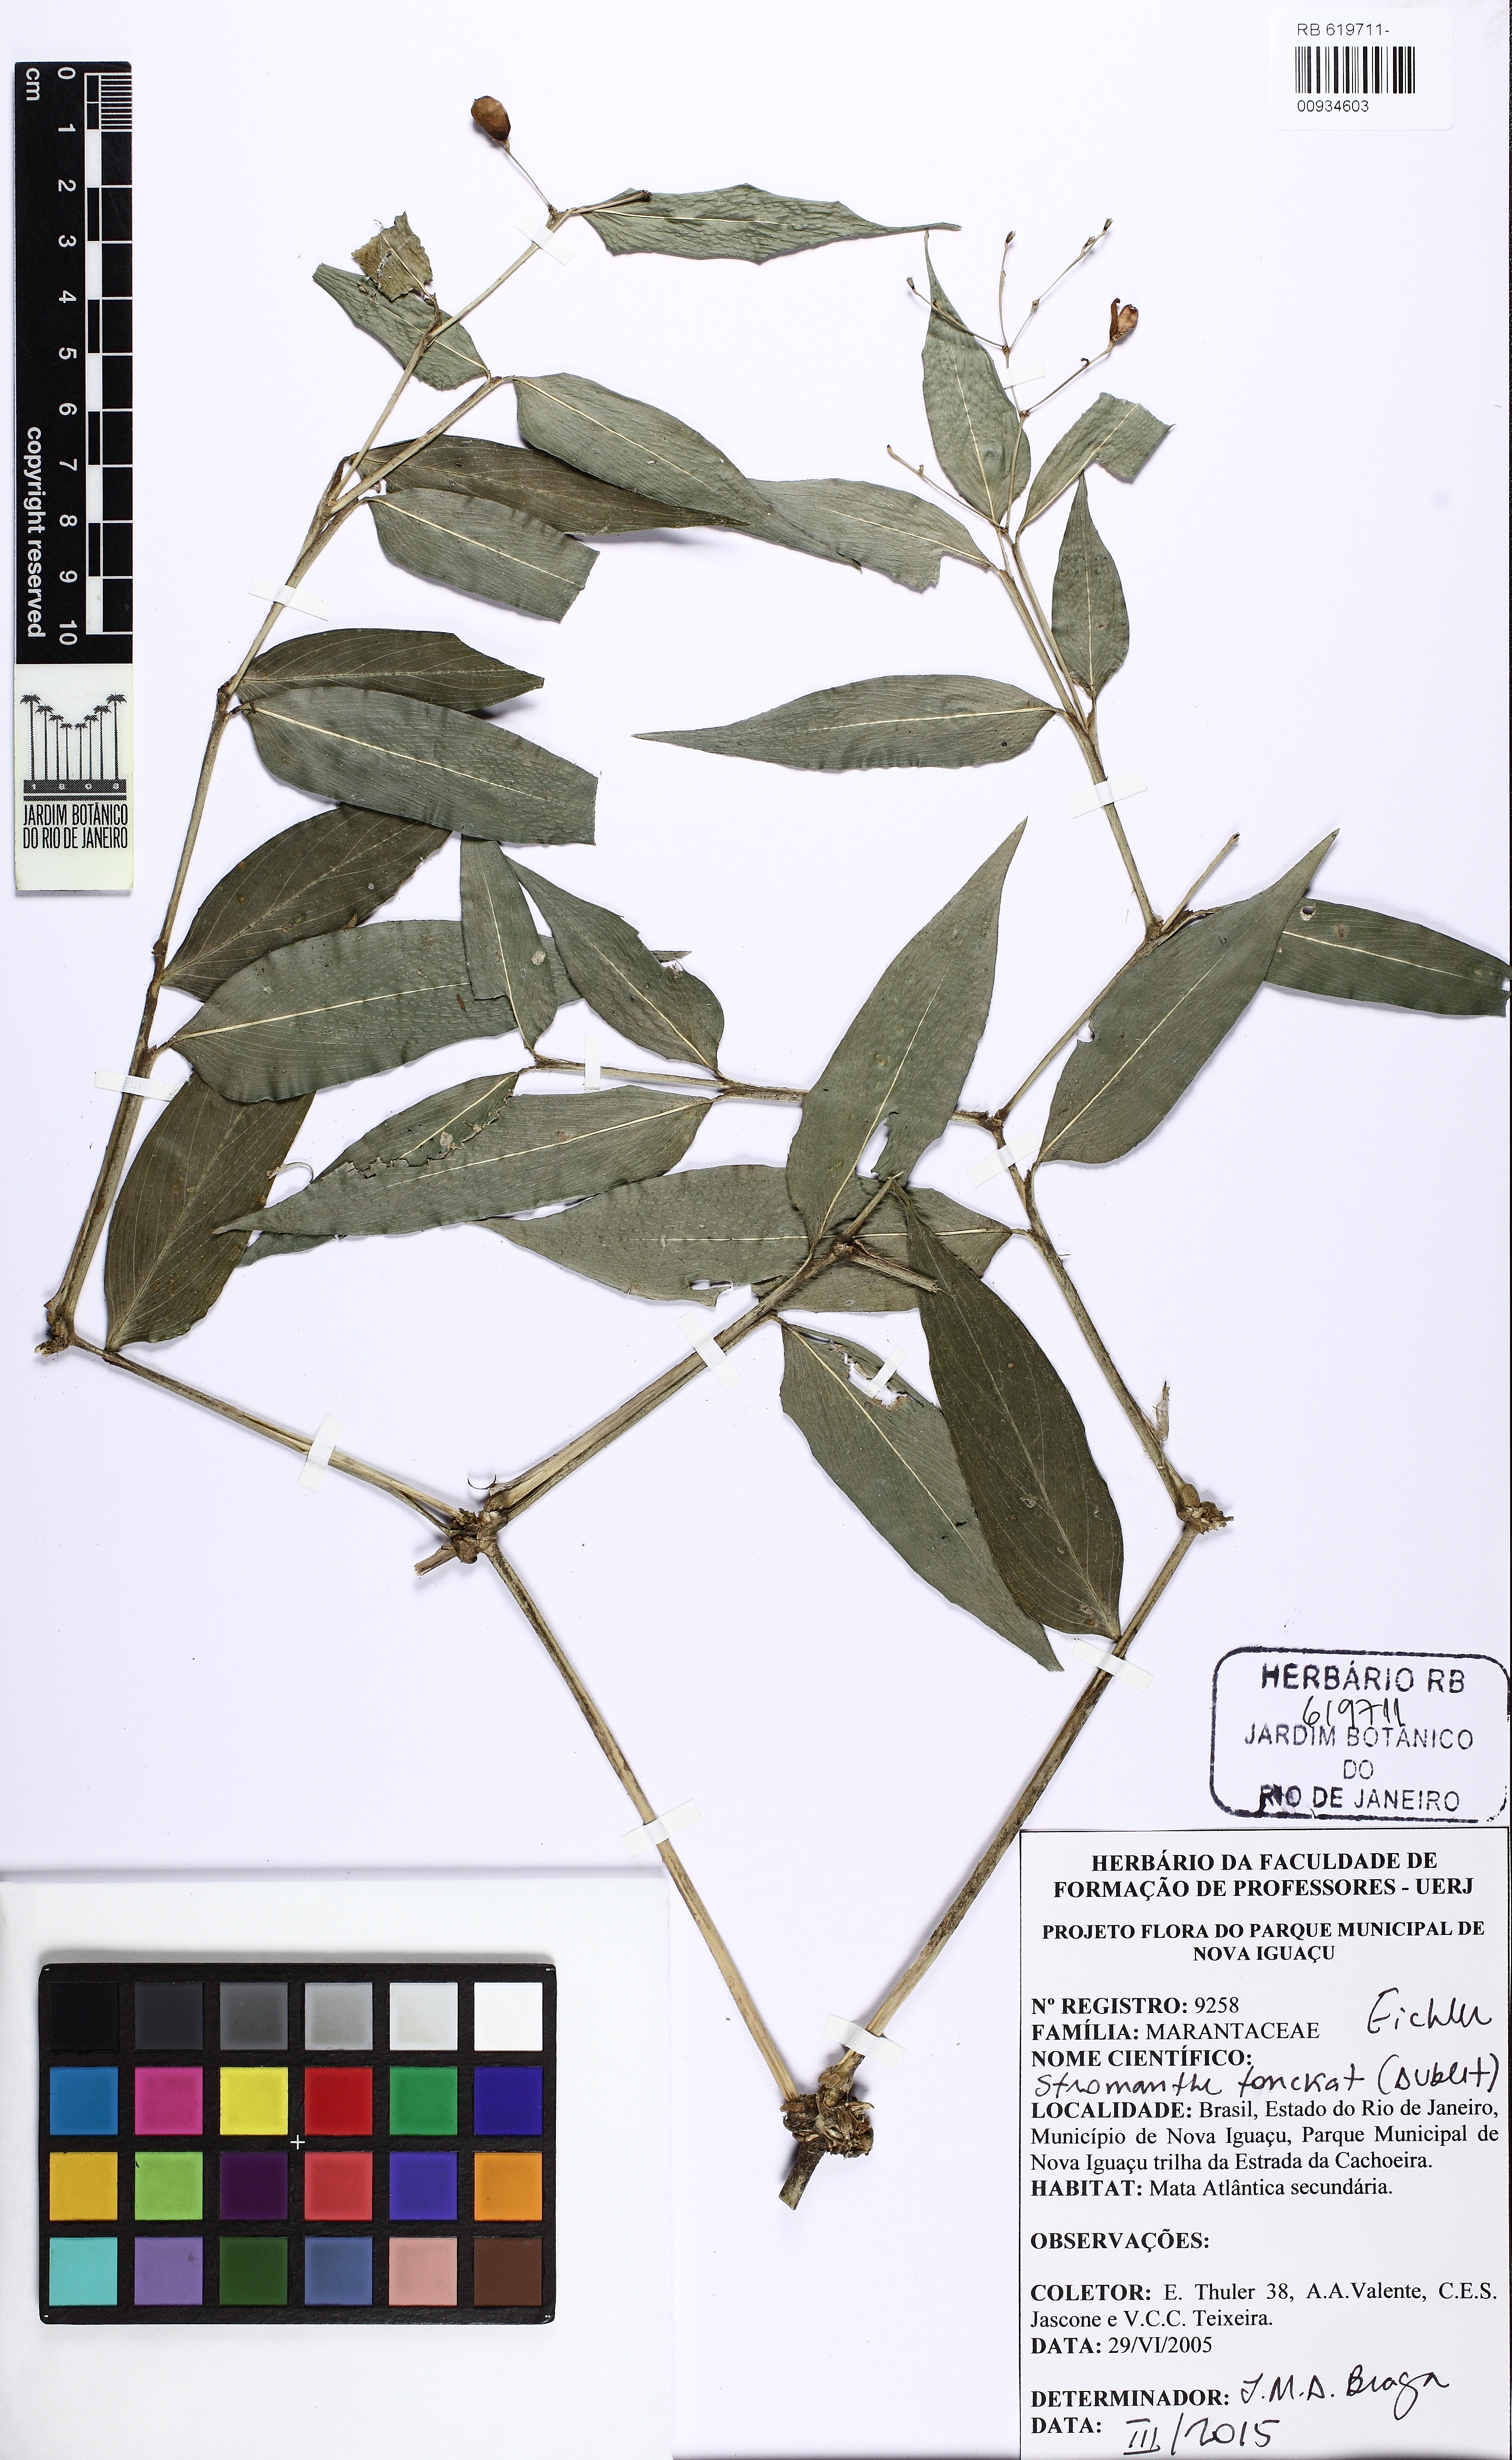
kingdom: Plantae
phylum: Tracheophyta
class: Liliopsida
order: Zingiberales
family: Marantaceae
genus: Stromanthe
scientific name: Stromanthe tonckat
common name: Stromanthe
